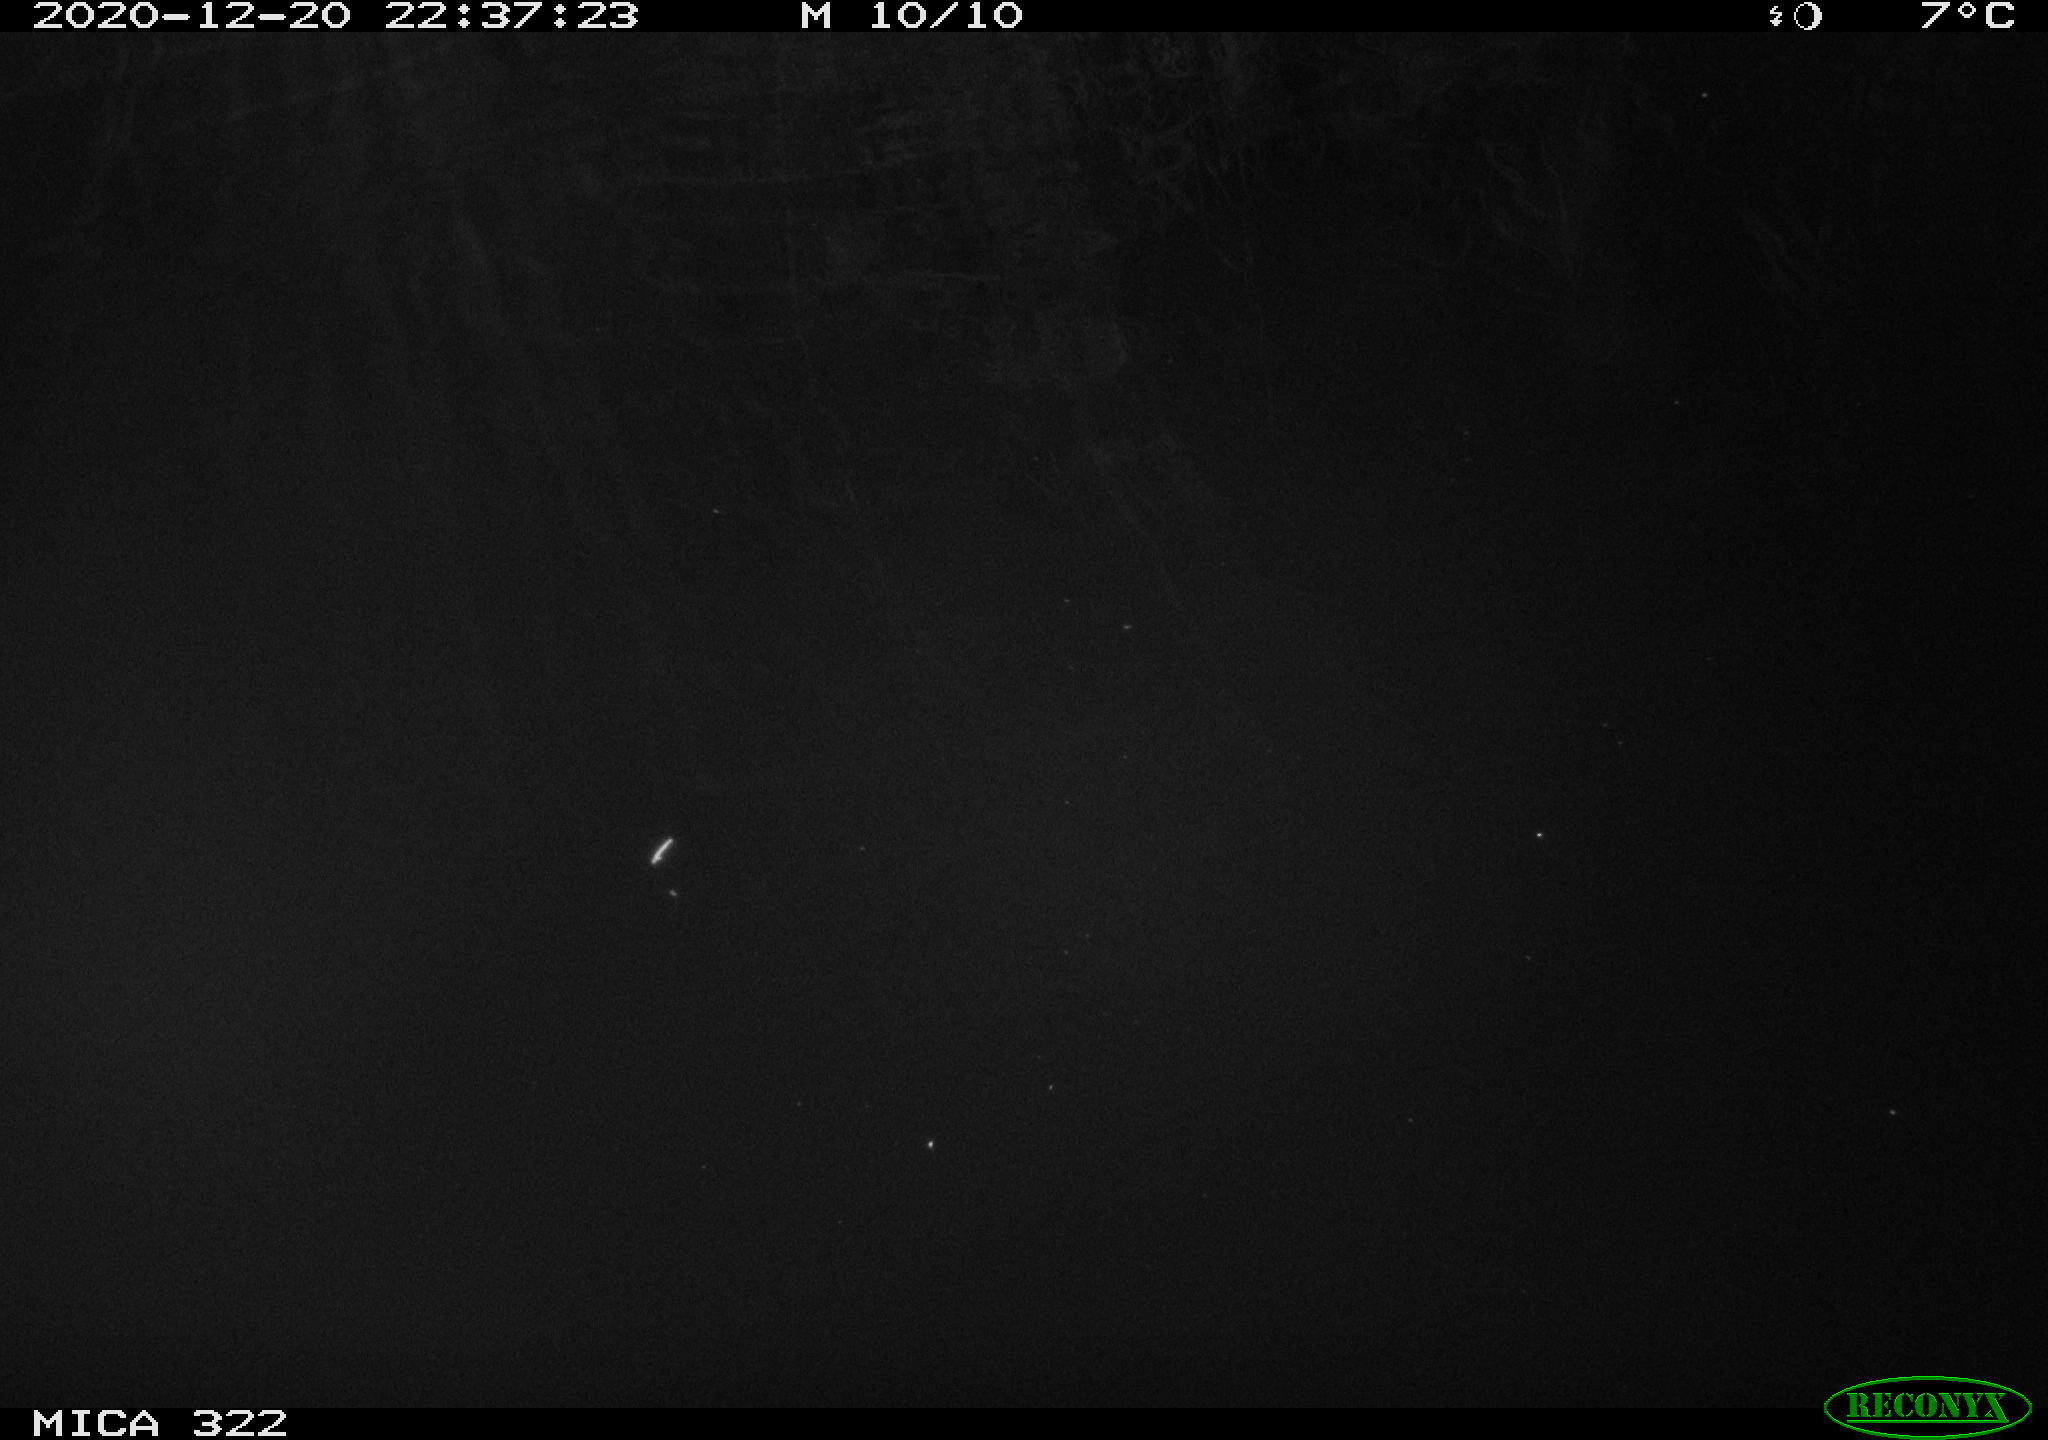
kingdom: Animalia
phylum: Chordata
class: Mammalia
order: Rodentia
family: Cricetidae
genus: Ondatra
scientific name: Ondatra zibethicus
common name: Muskrat
